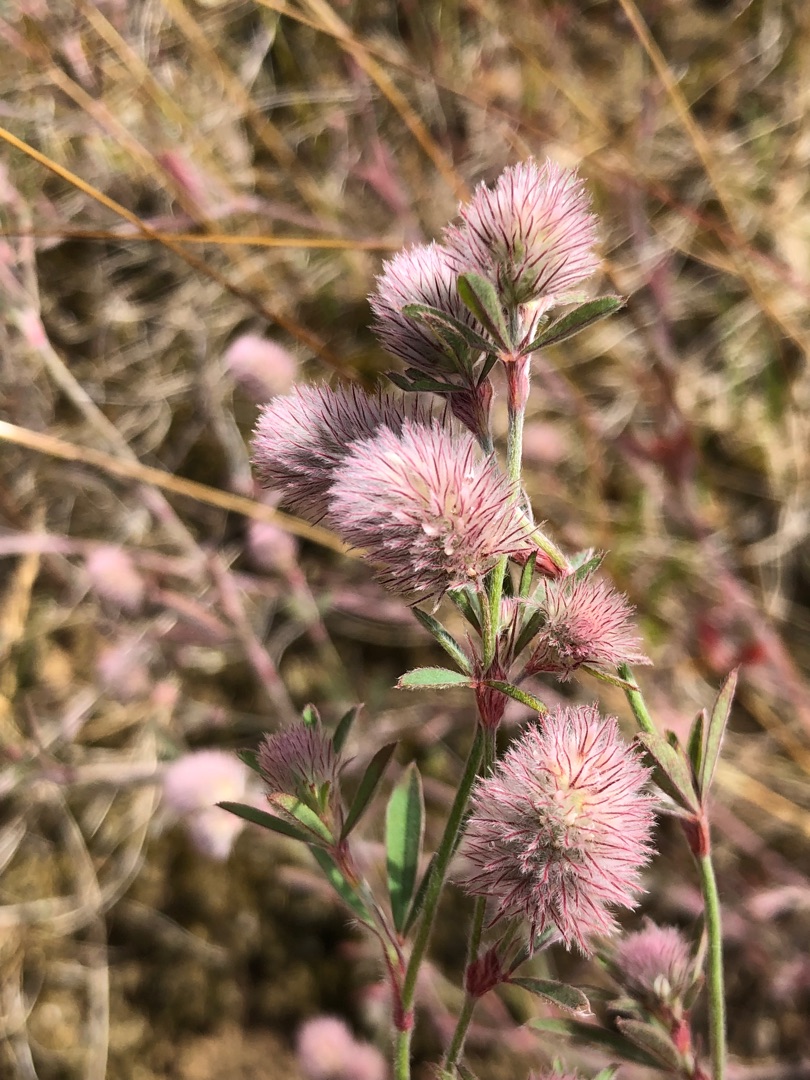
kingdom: Plantae
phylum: Tracheophyta
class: Magnoliopsida
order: Fabales
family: Fabaceae
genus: Trifolium
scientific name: Trifolium arvense
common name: Hare-kløver
